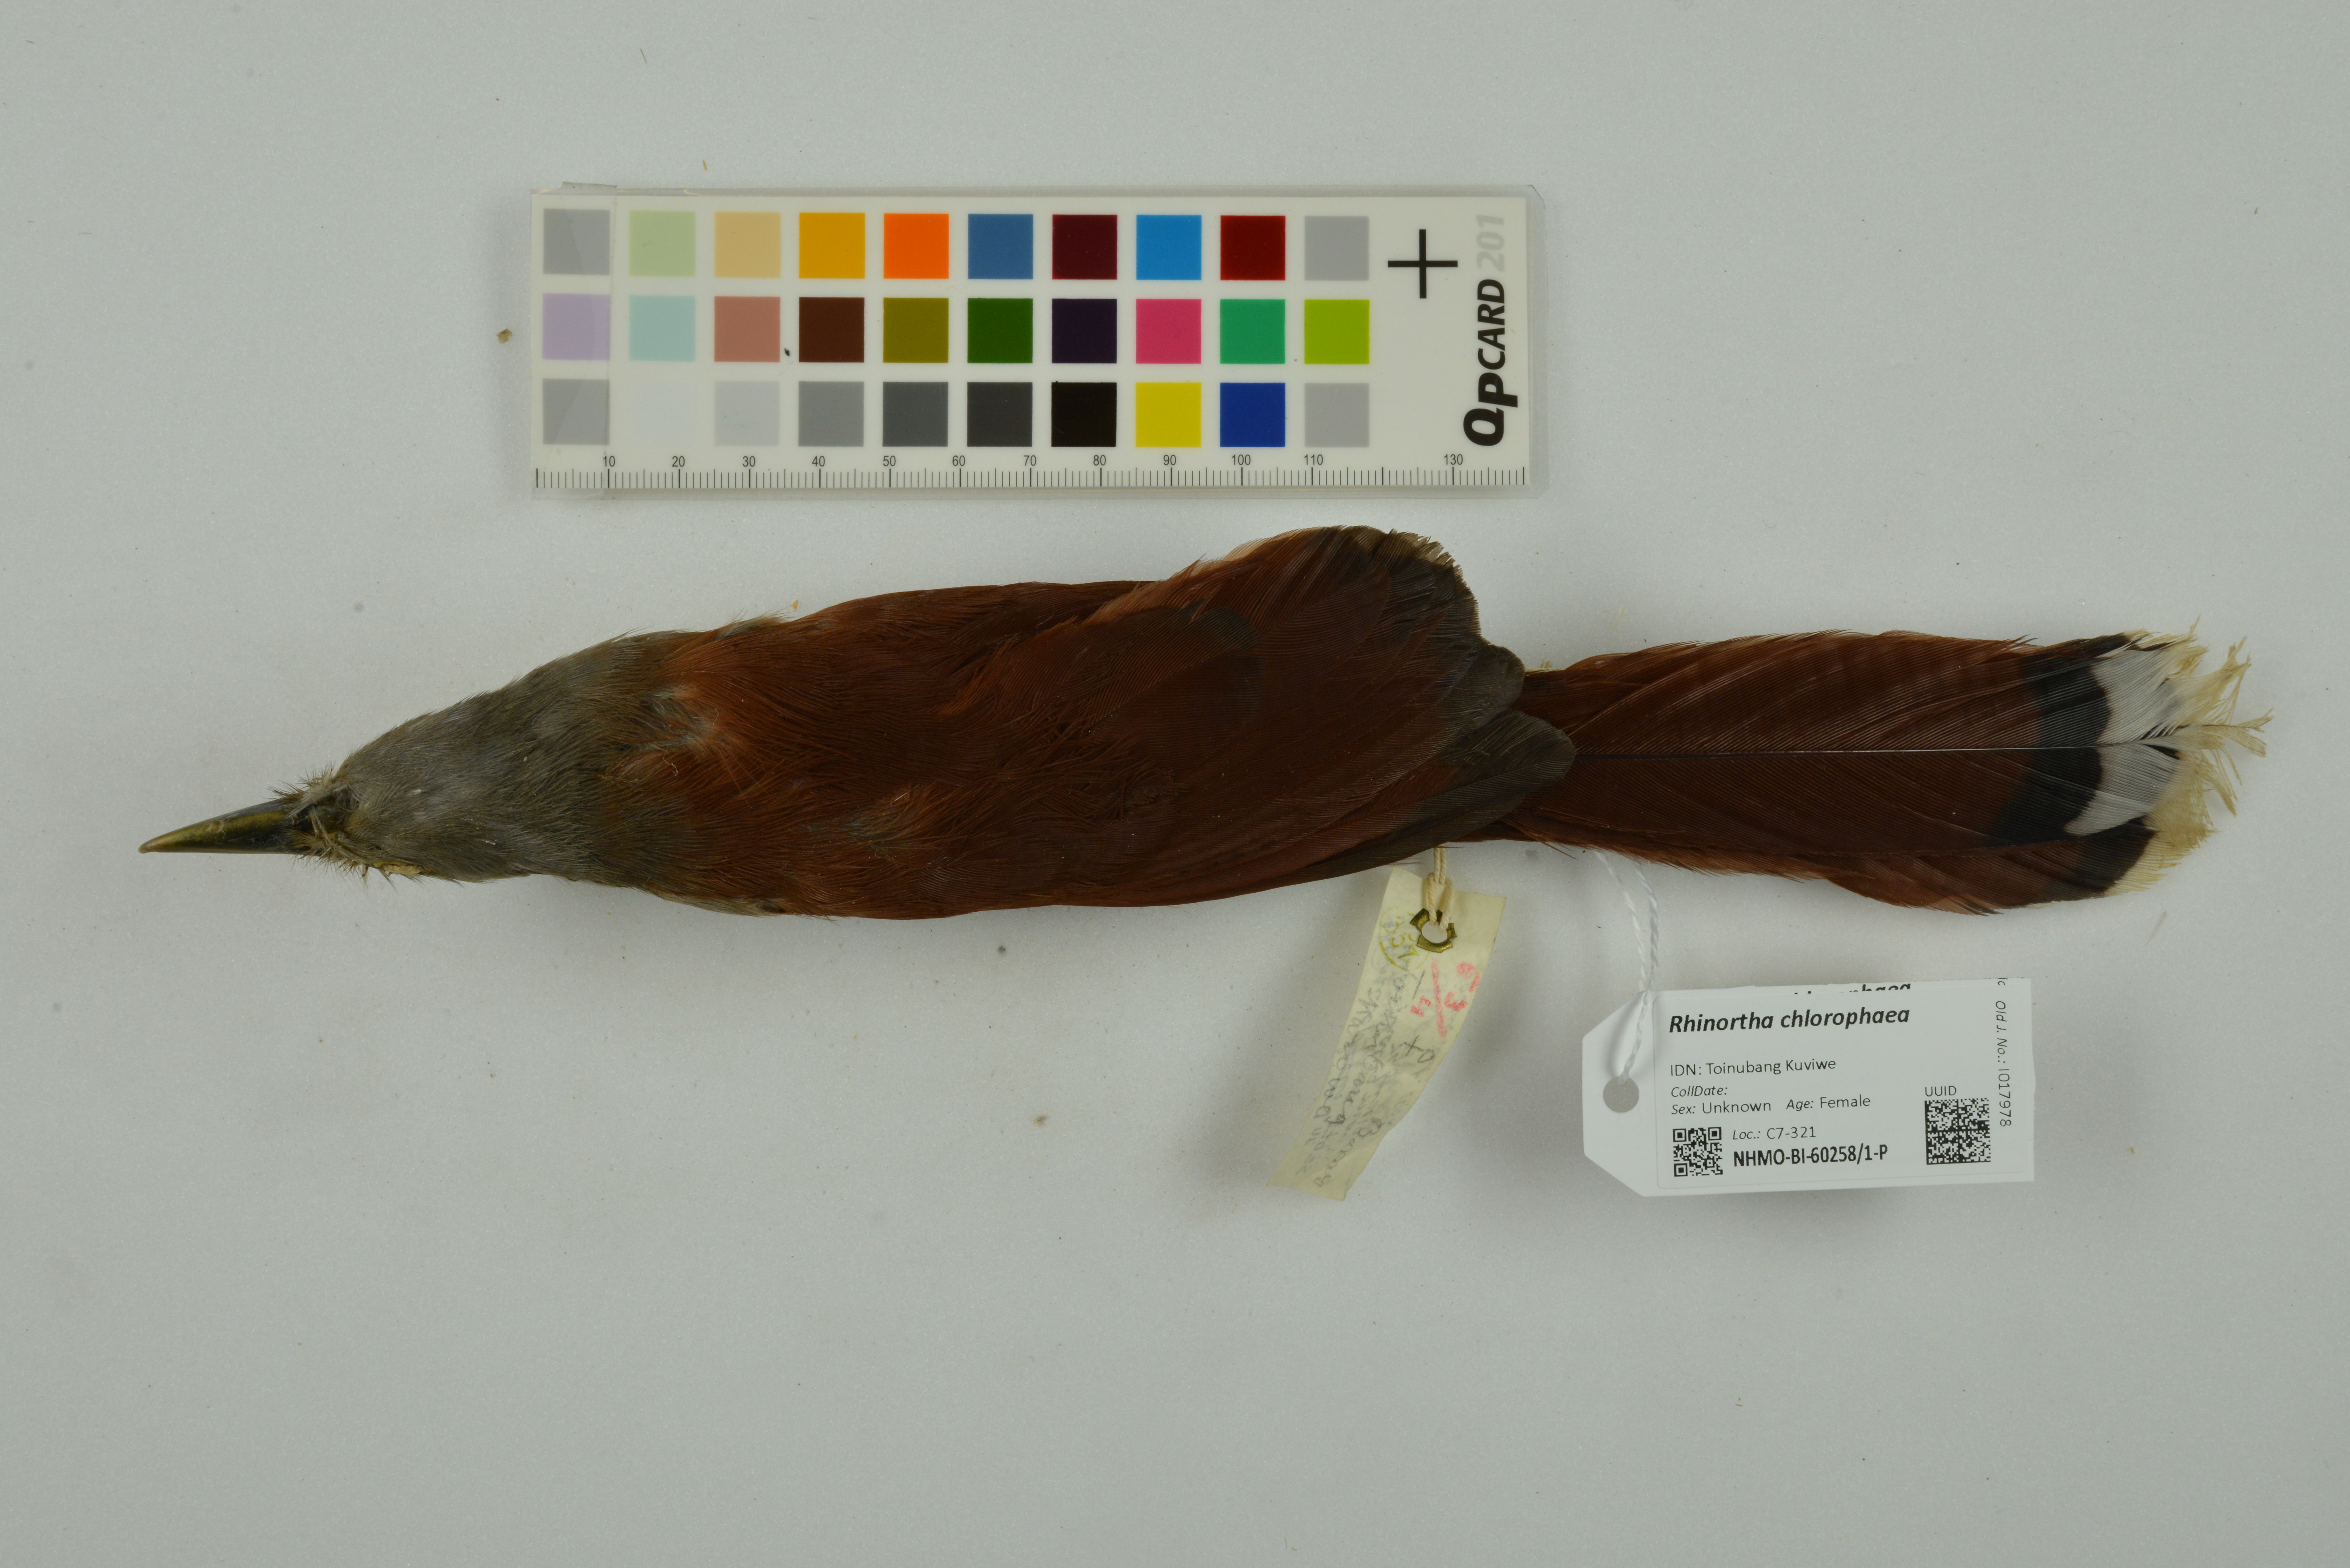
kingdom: Animalia
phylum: Chordata
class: Aves
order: Cuculiformes
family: Cuculidae
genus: Rhinortha
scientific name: Rhinortha chlorophaea
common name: Raffles's malkoha
